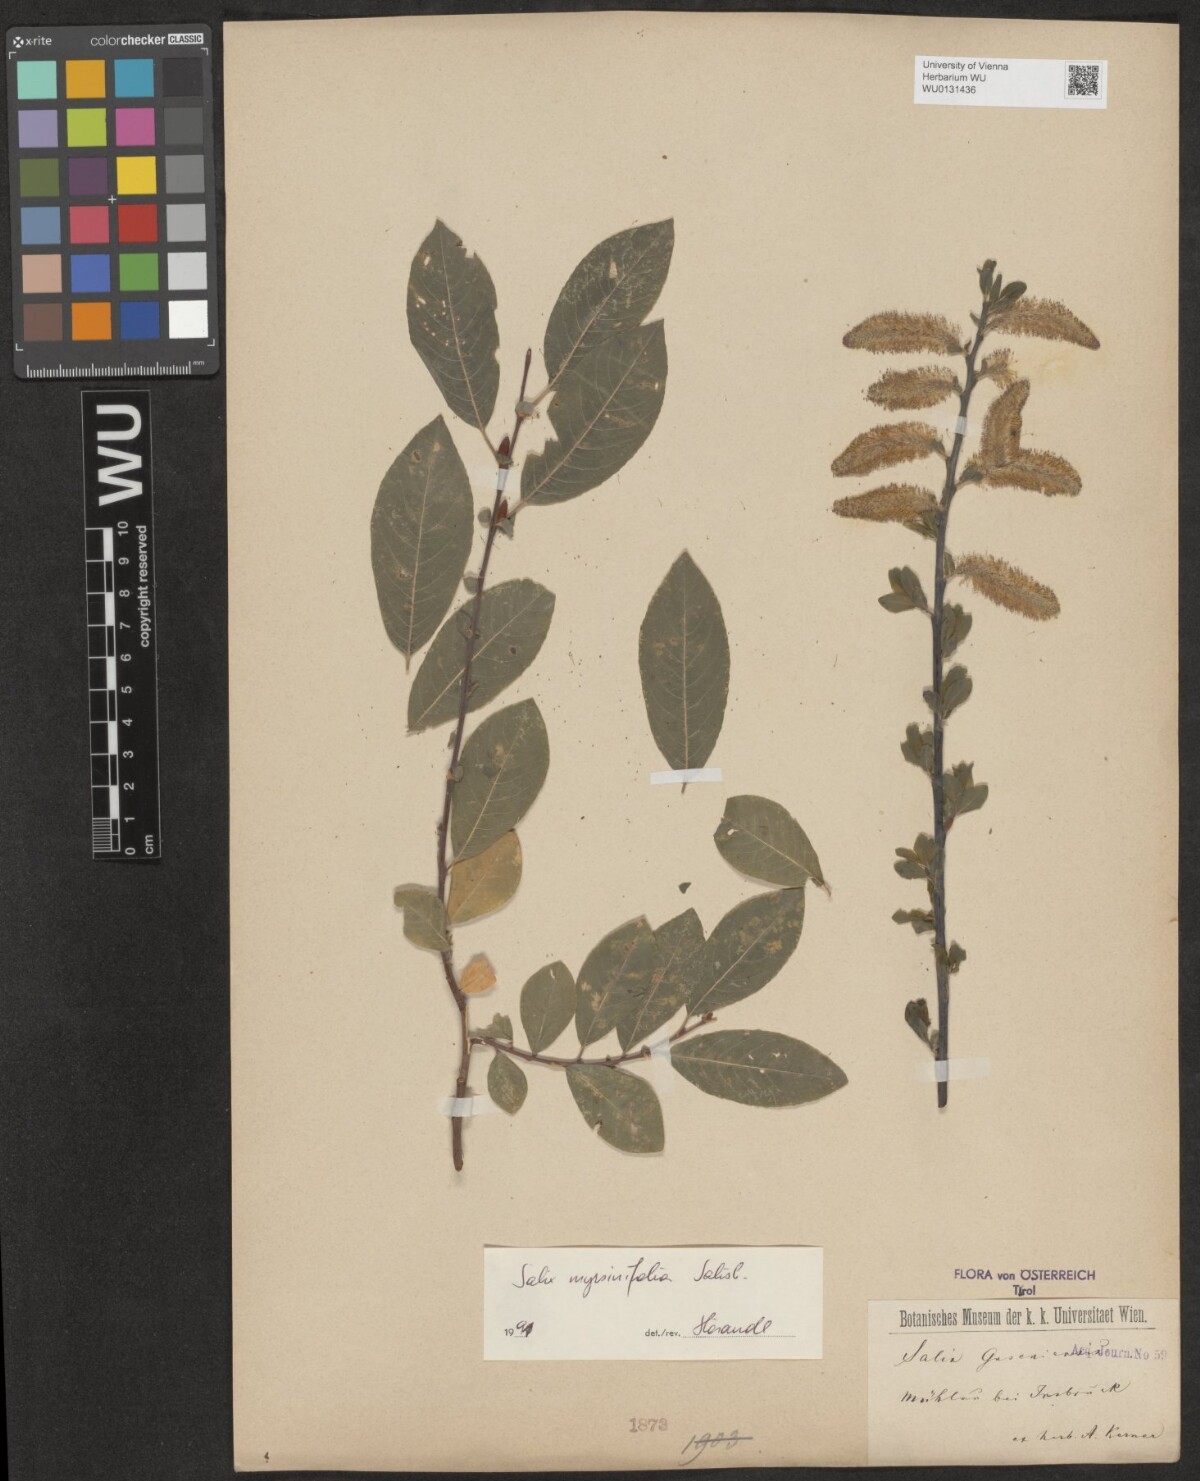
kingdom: Plantae
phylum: Tracheophyta
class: Magnoliopsida
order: Malpighiales
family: Salicaceae
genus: Salix
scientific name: Salix myrsinifolia
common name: Dark-leaved willow
